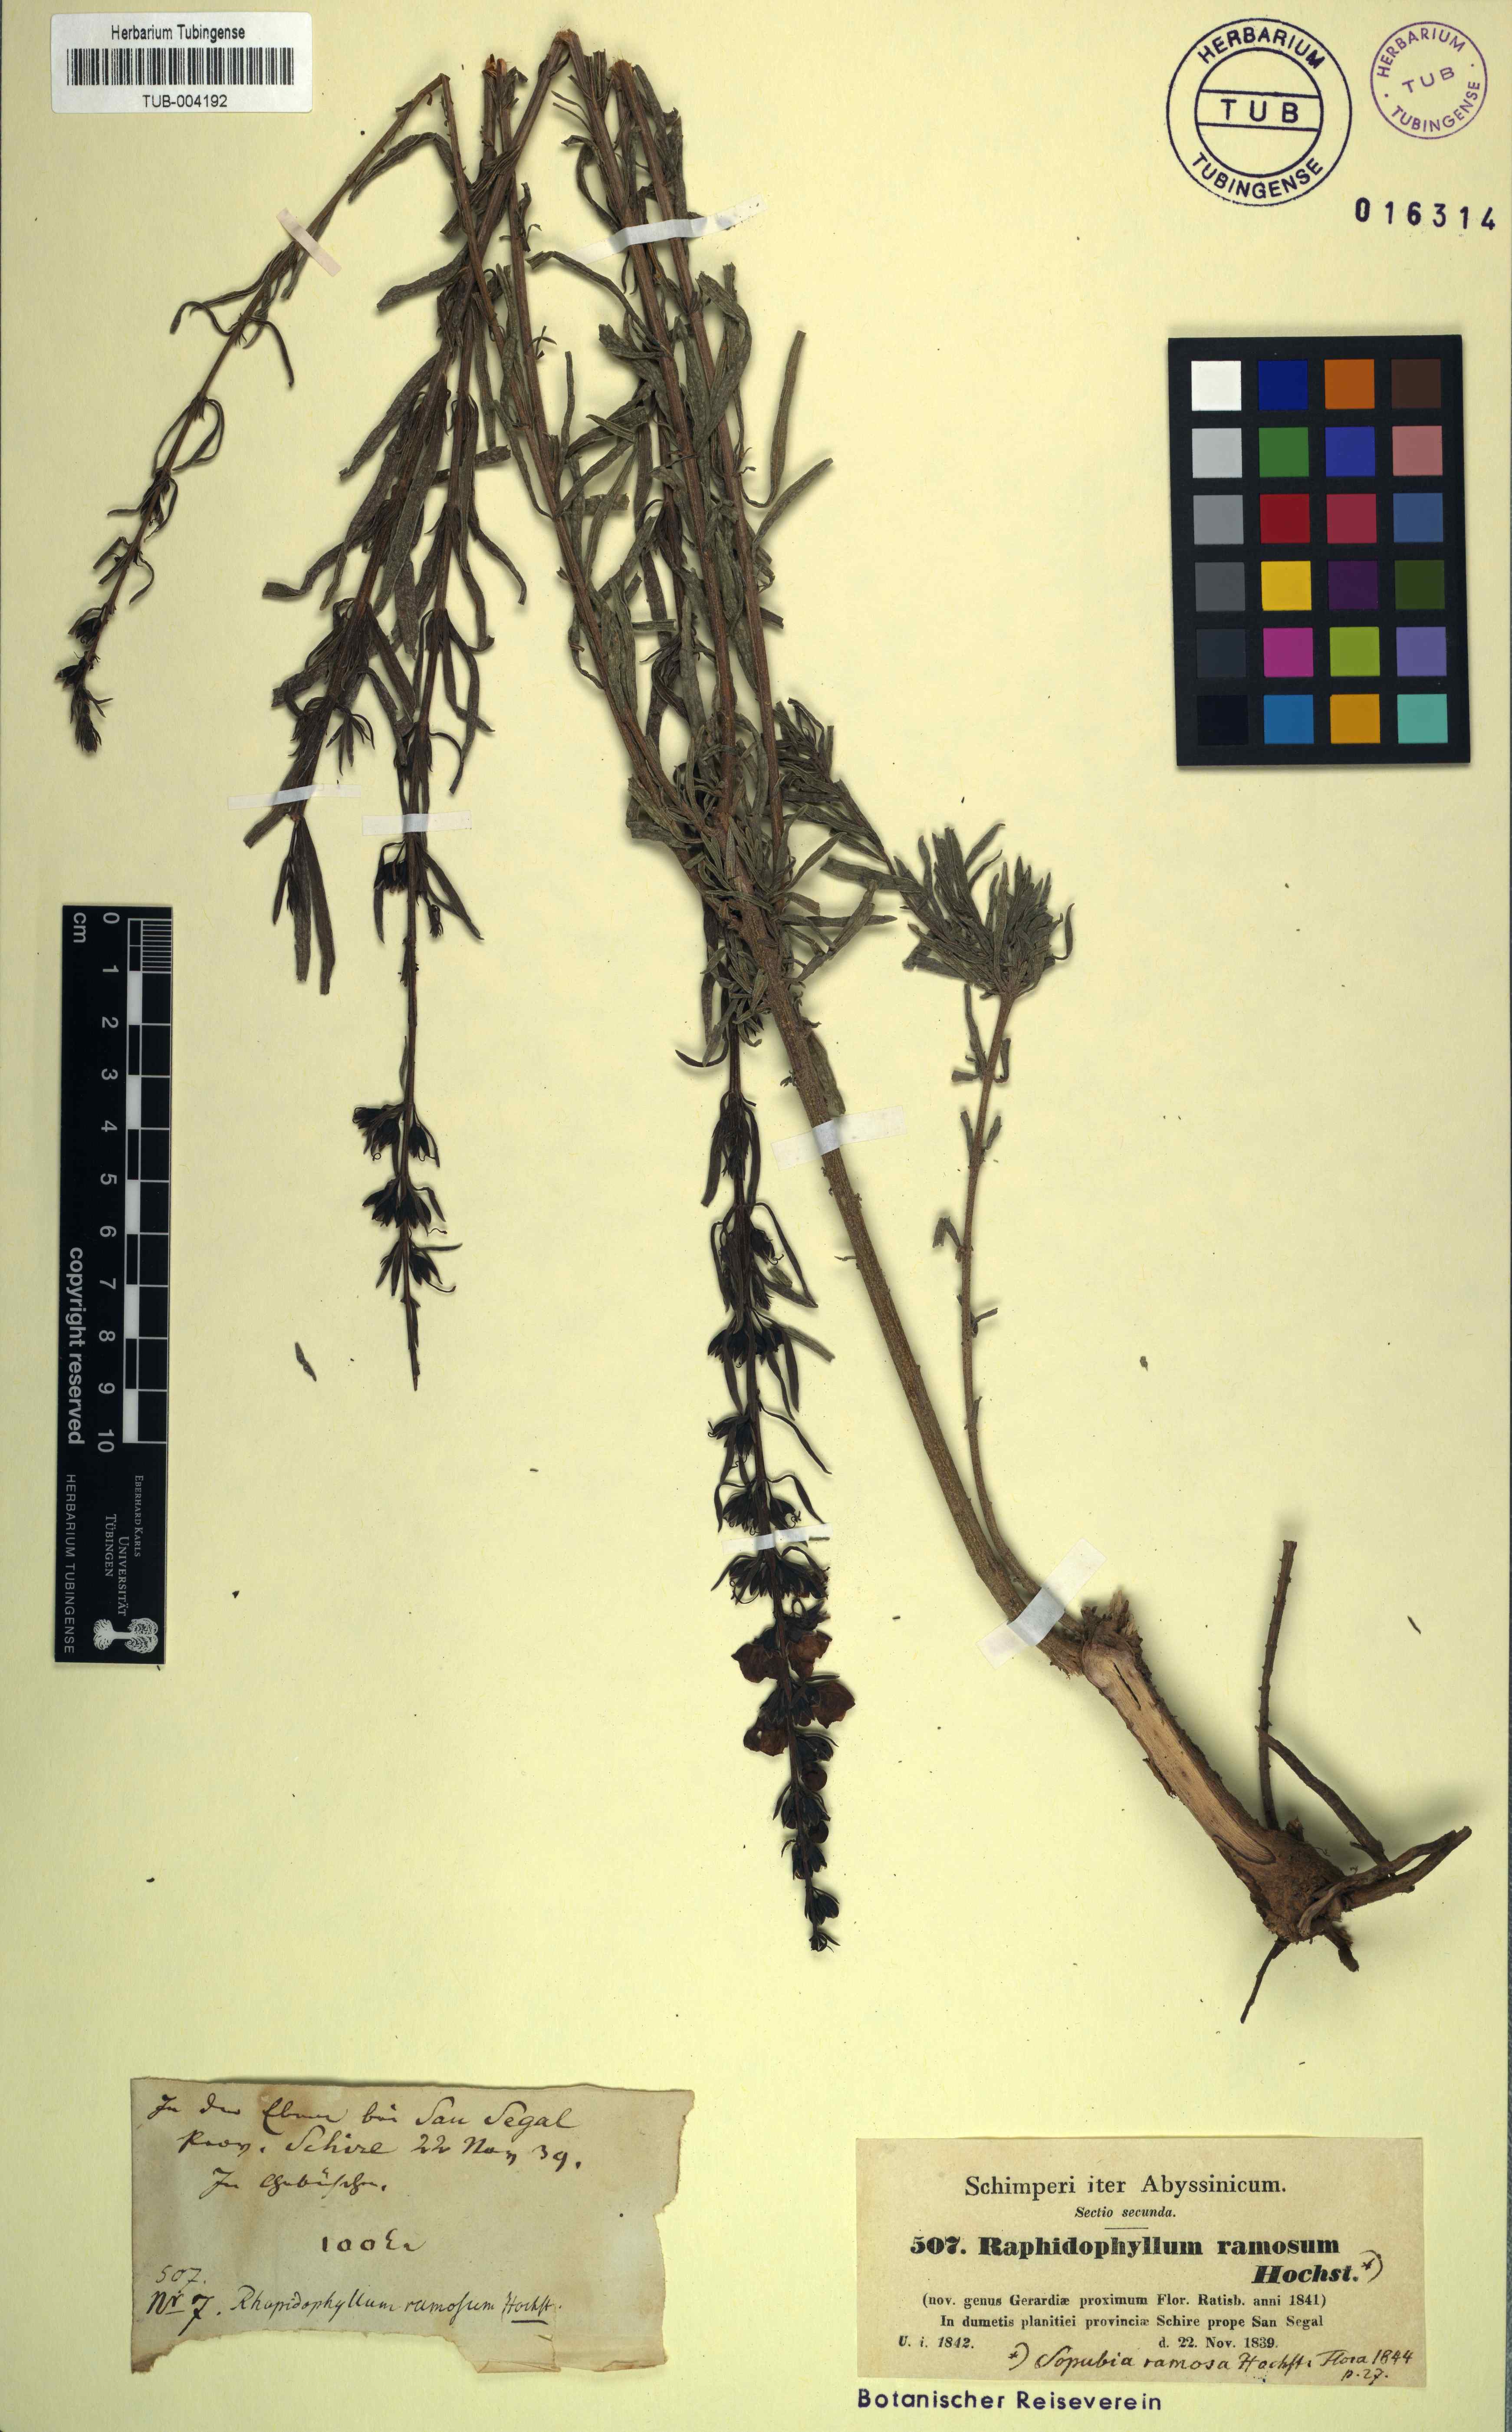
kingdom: Plantae
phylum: Tracheophyta
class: Magnoliopsida
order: Lamiales
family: Orobanchaceae
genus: Sopubia
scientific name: Sopubia ramosa
